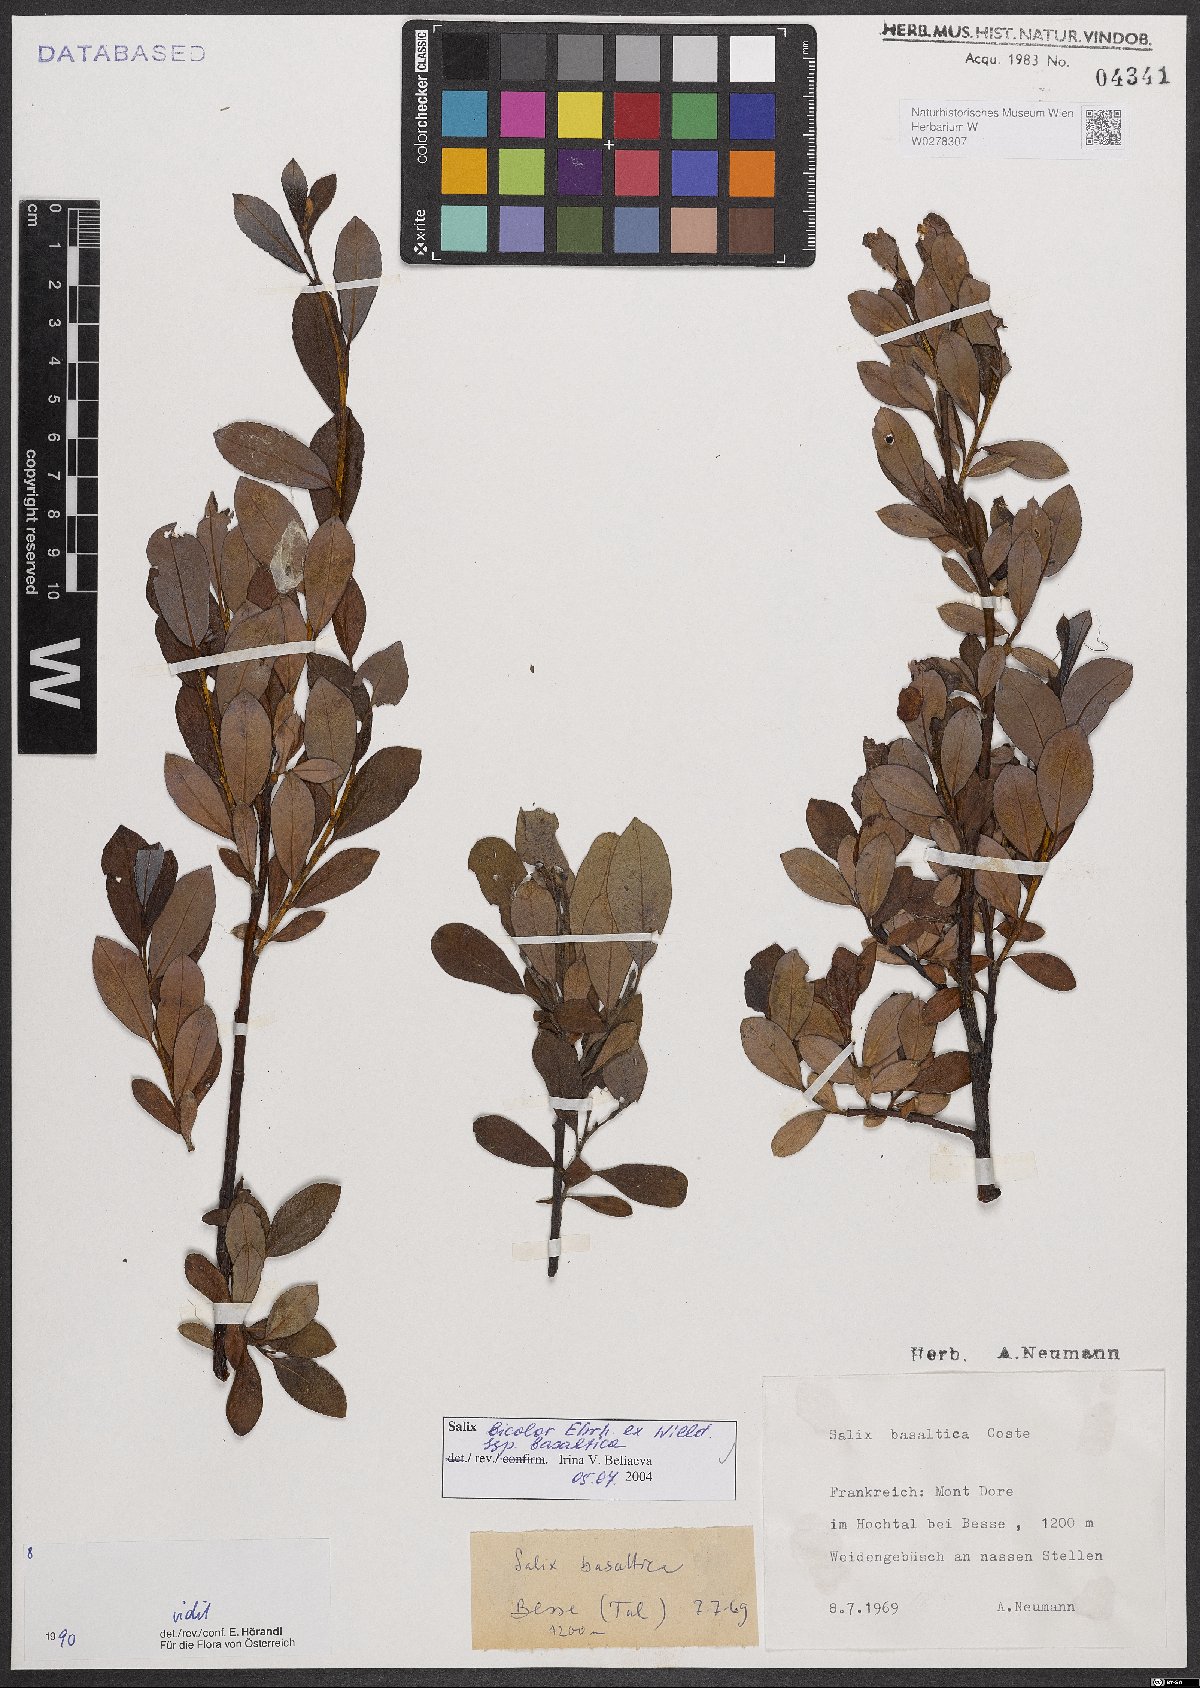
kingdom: Plantae
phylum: Tracheophyta
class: Magnoliopsida
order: Malpighiales
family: Salicaceae
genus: Salix
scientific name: Salix basaltica
